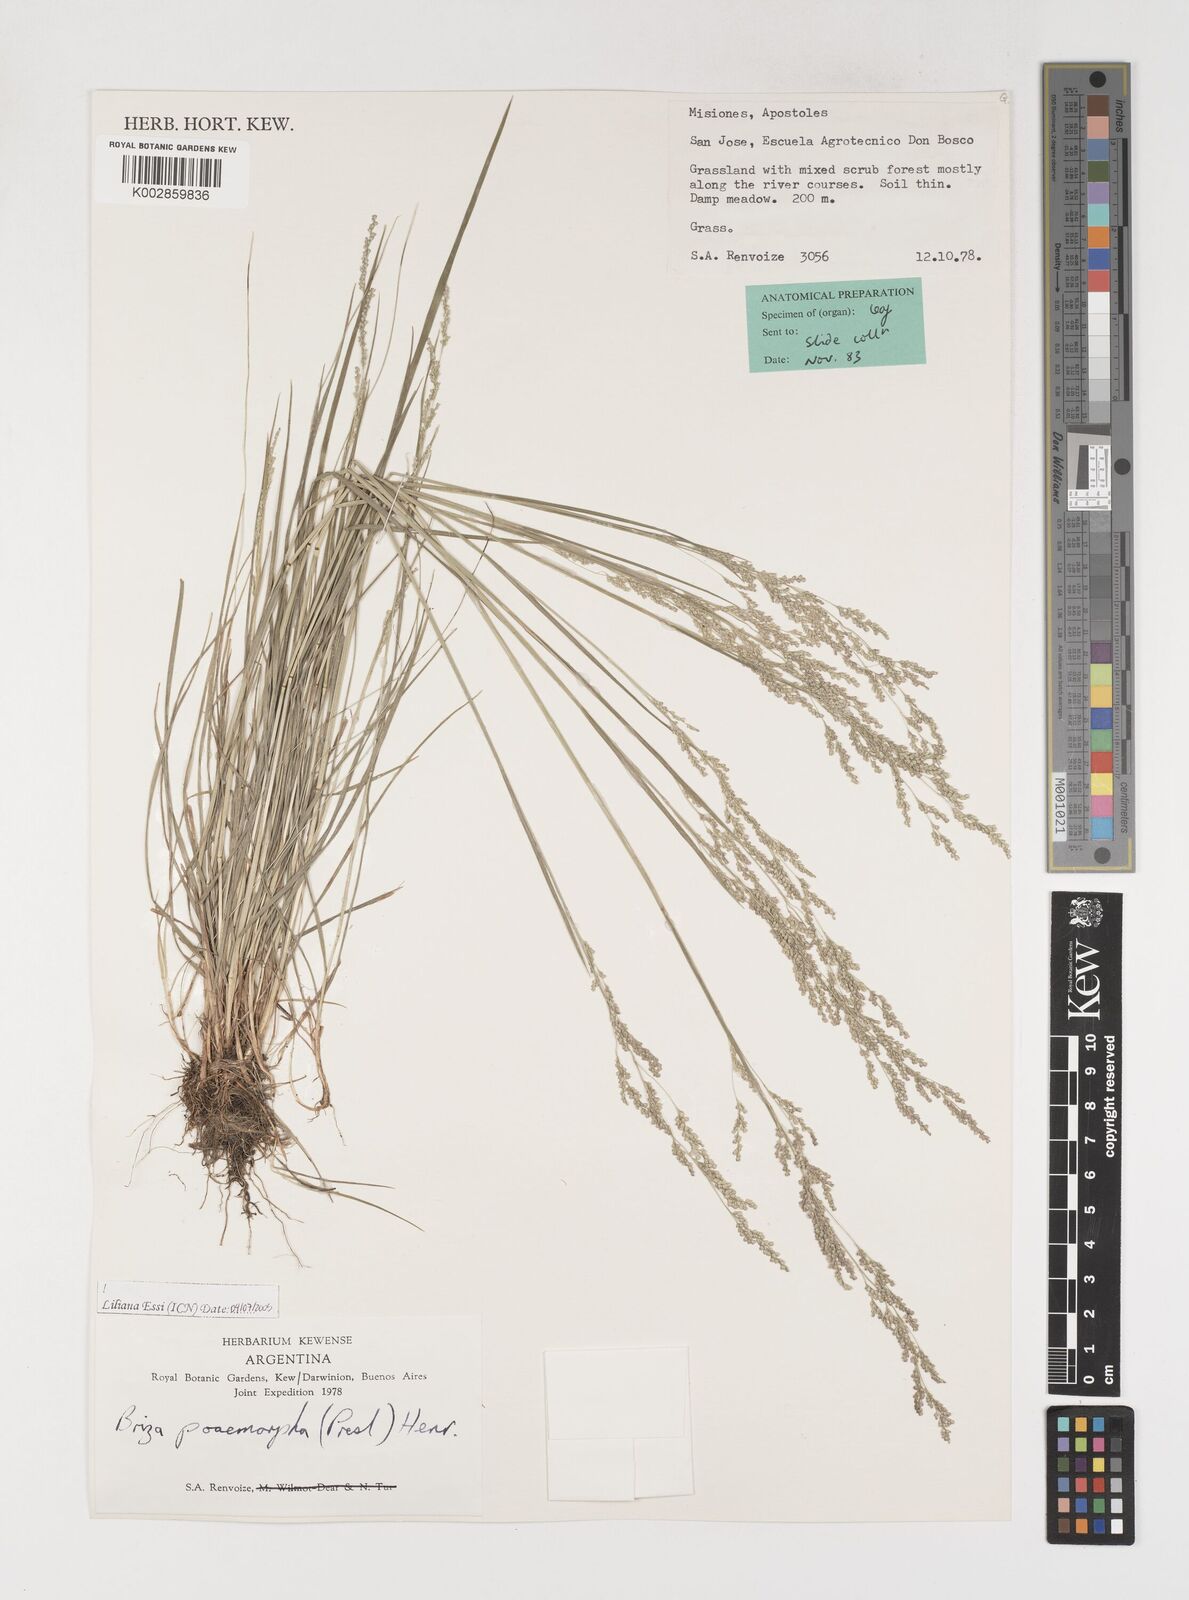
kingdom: Plantae
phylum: Tracheophyta
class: Liliopsida
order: Poales
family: Poaceae
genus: Microbriza
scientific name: Microbriza poimorpha
